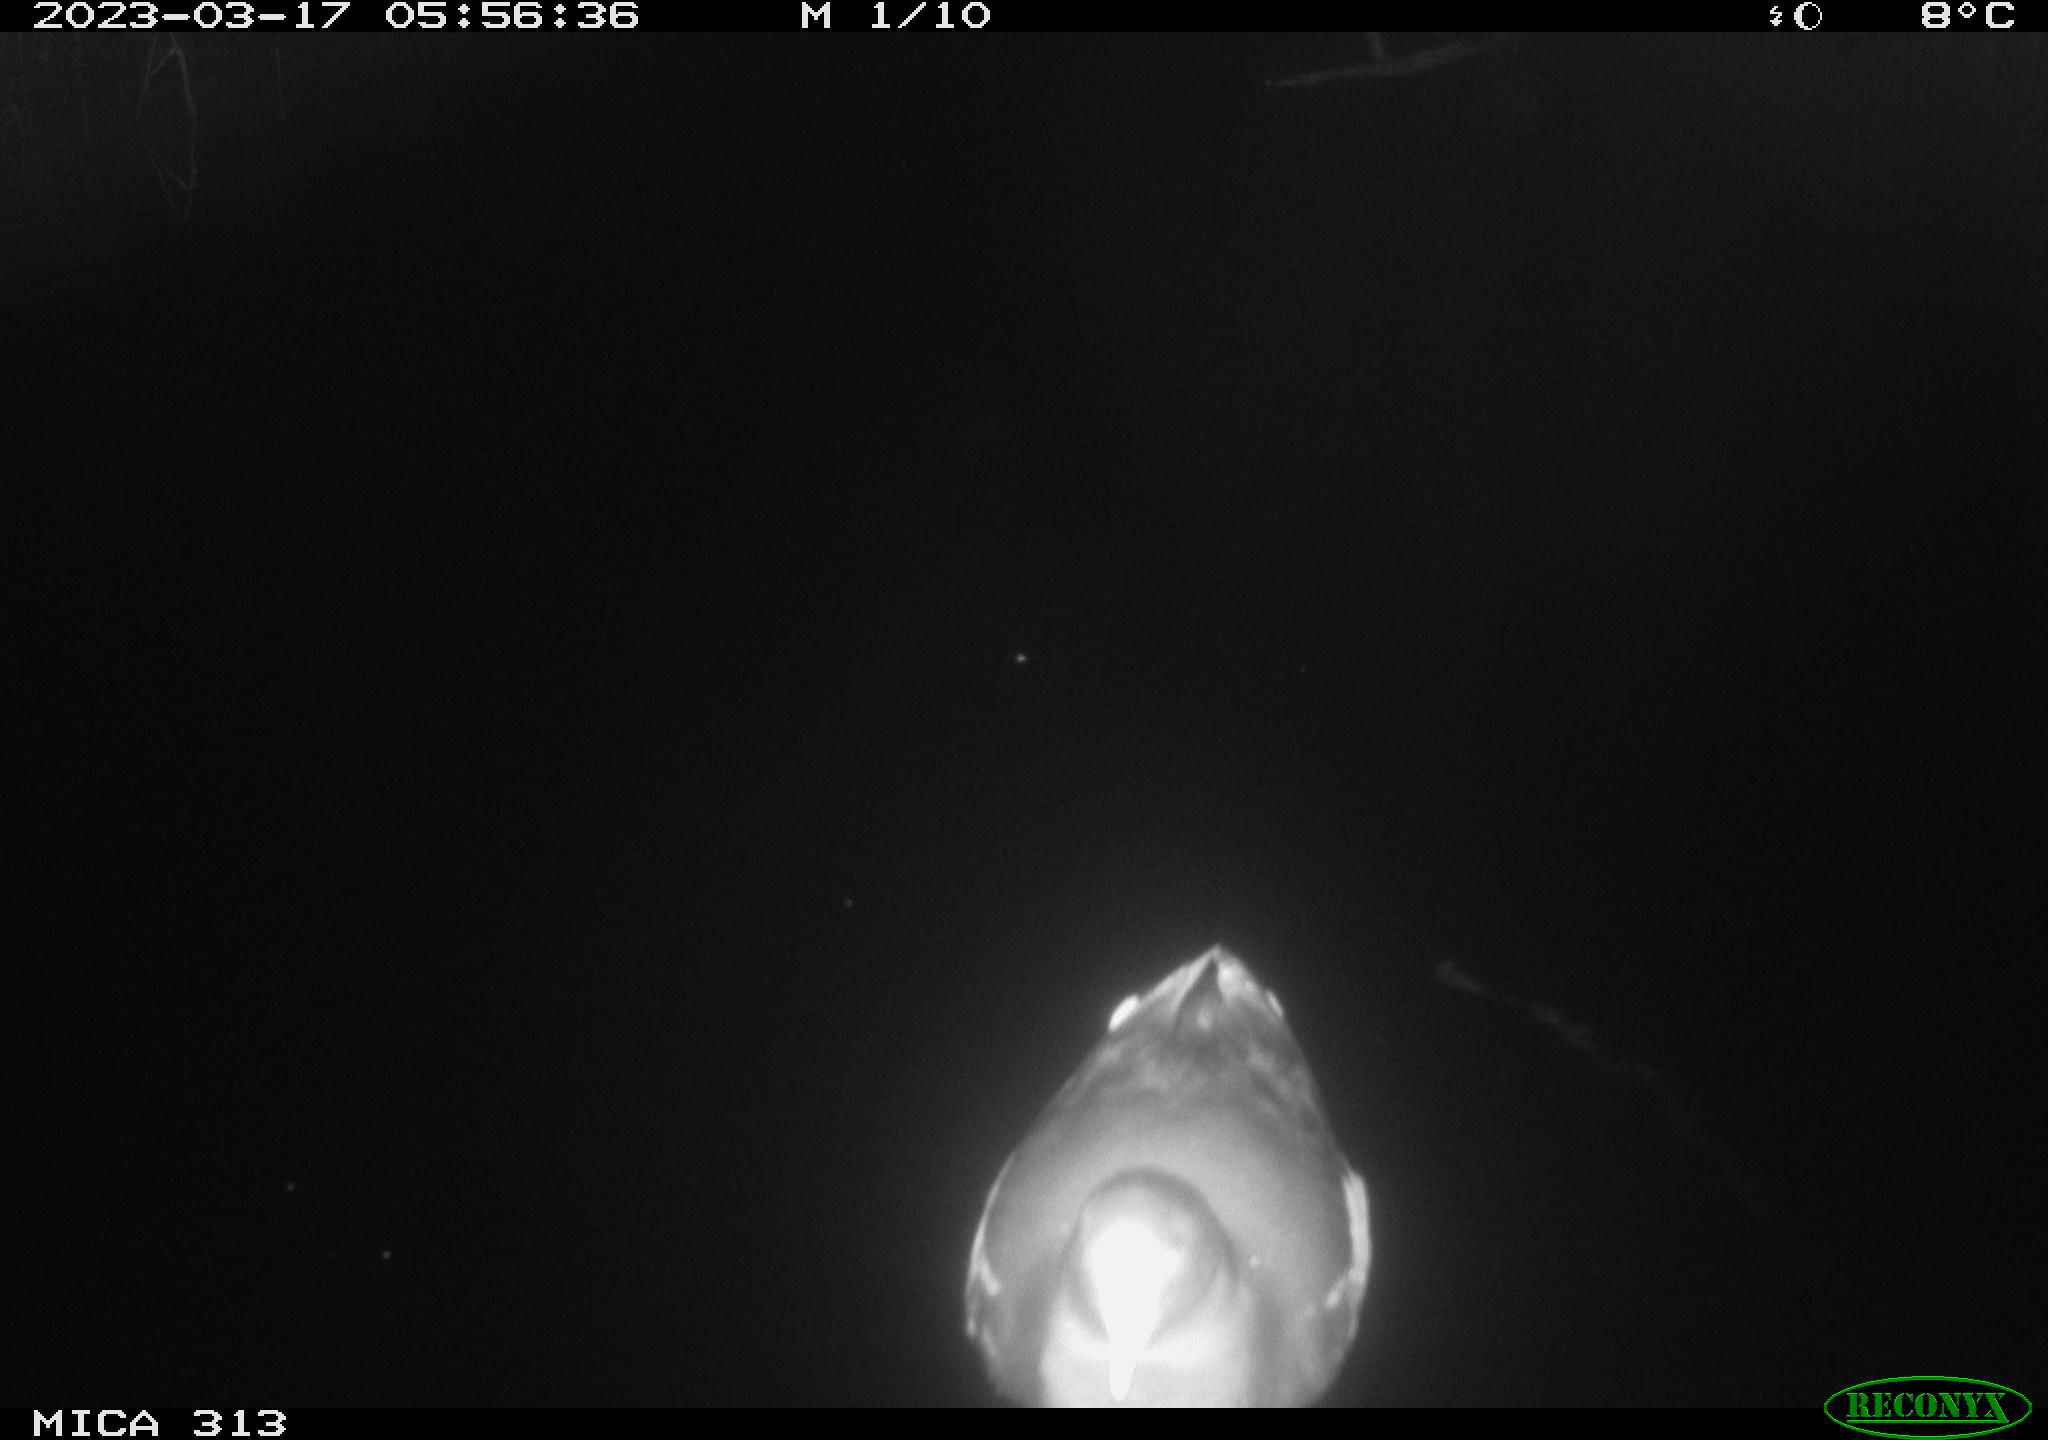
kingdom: Animalia
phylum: Chordata
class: Aves
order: Anseriformes
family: Anatidae
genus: Anas
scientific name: Anas
